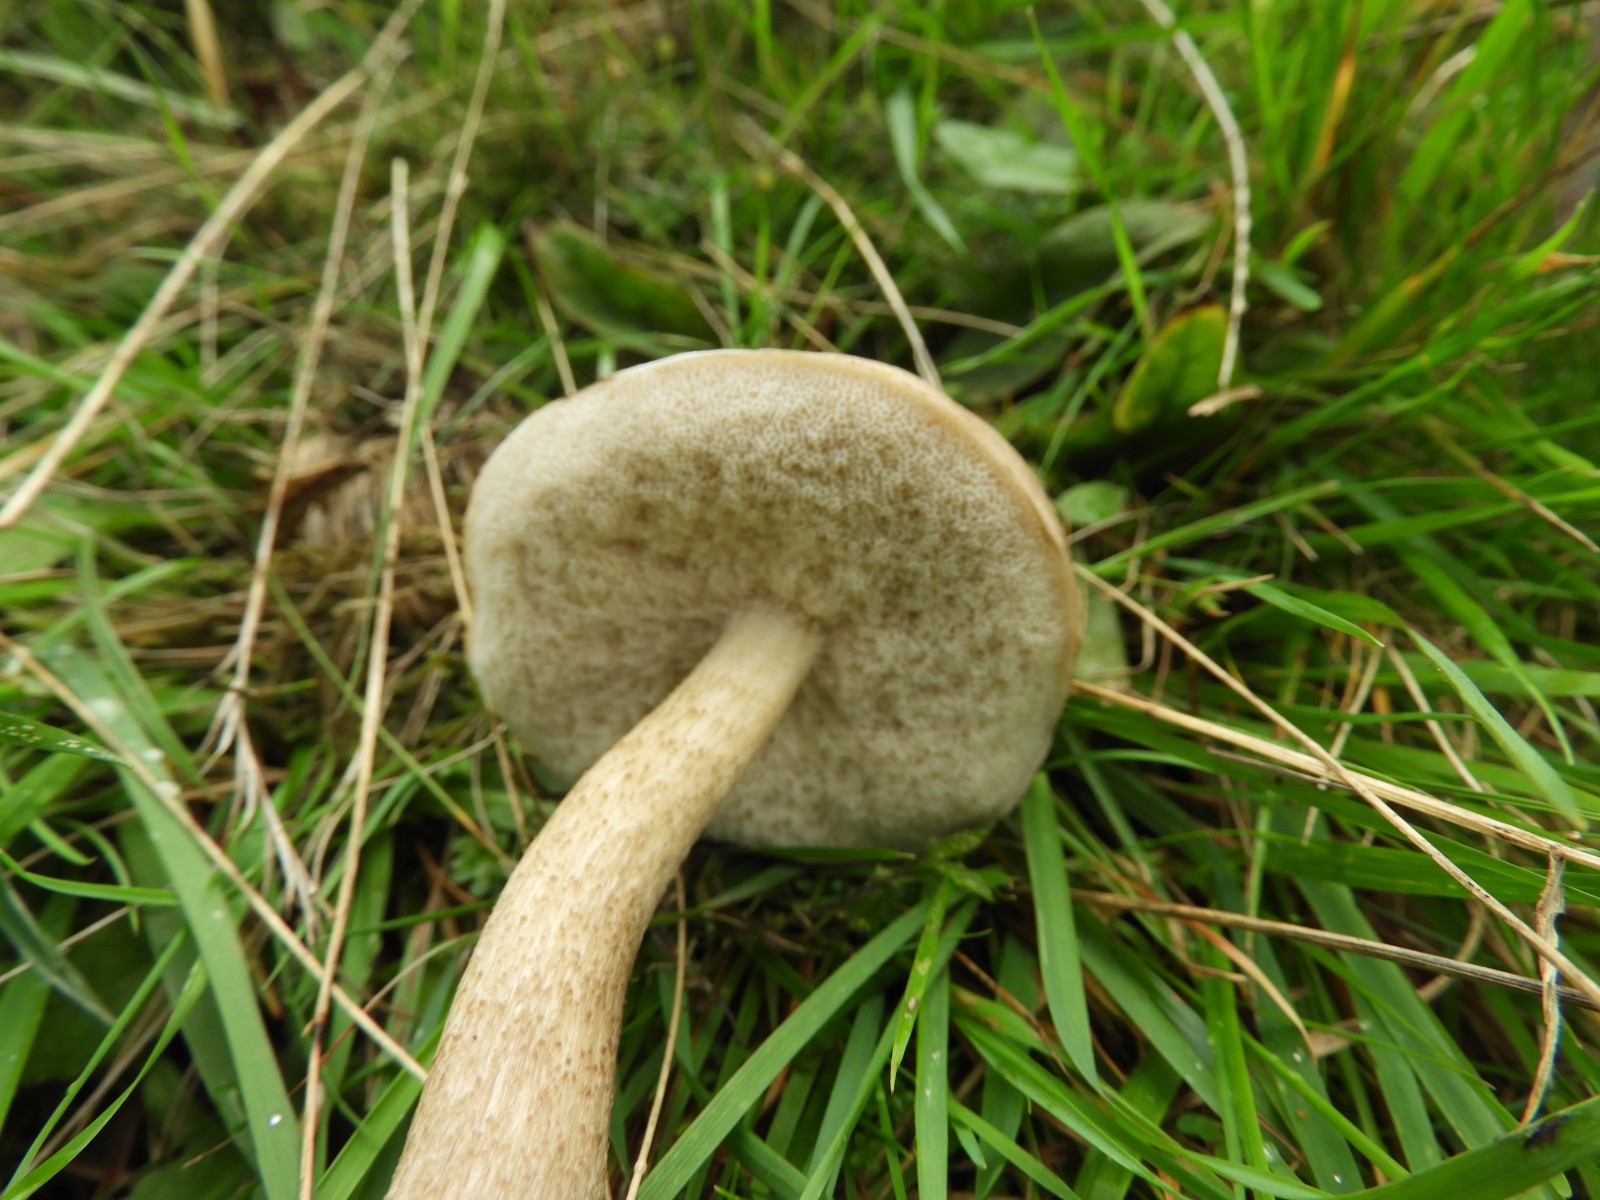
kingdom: Fungi
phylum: Basidiomycota
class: Agaricomycetes
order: Boletales
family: Boletaceae
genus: Leccinum
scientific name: Leccinum
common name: skælrørhat
